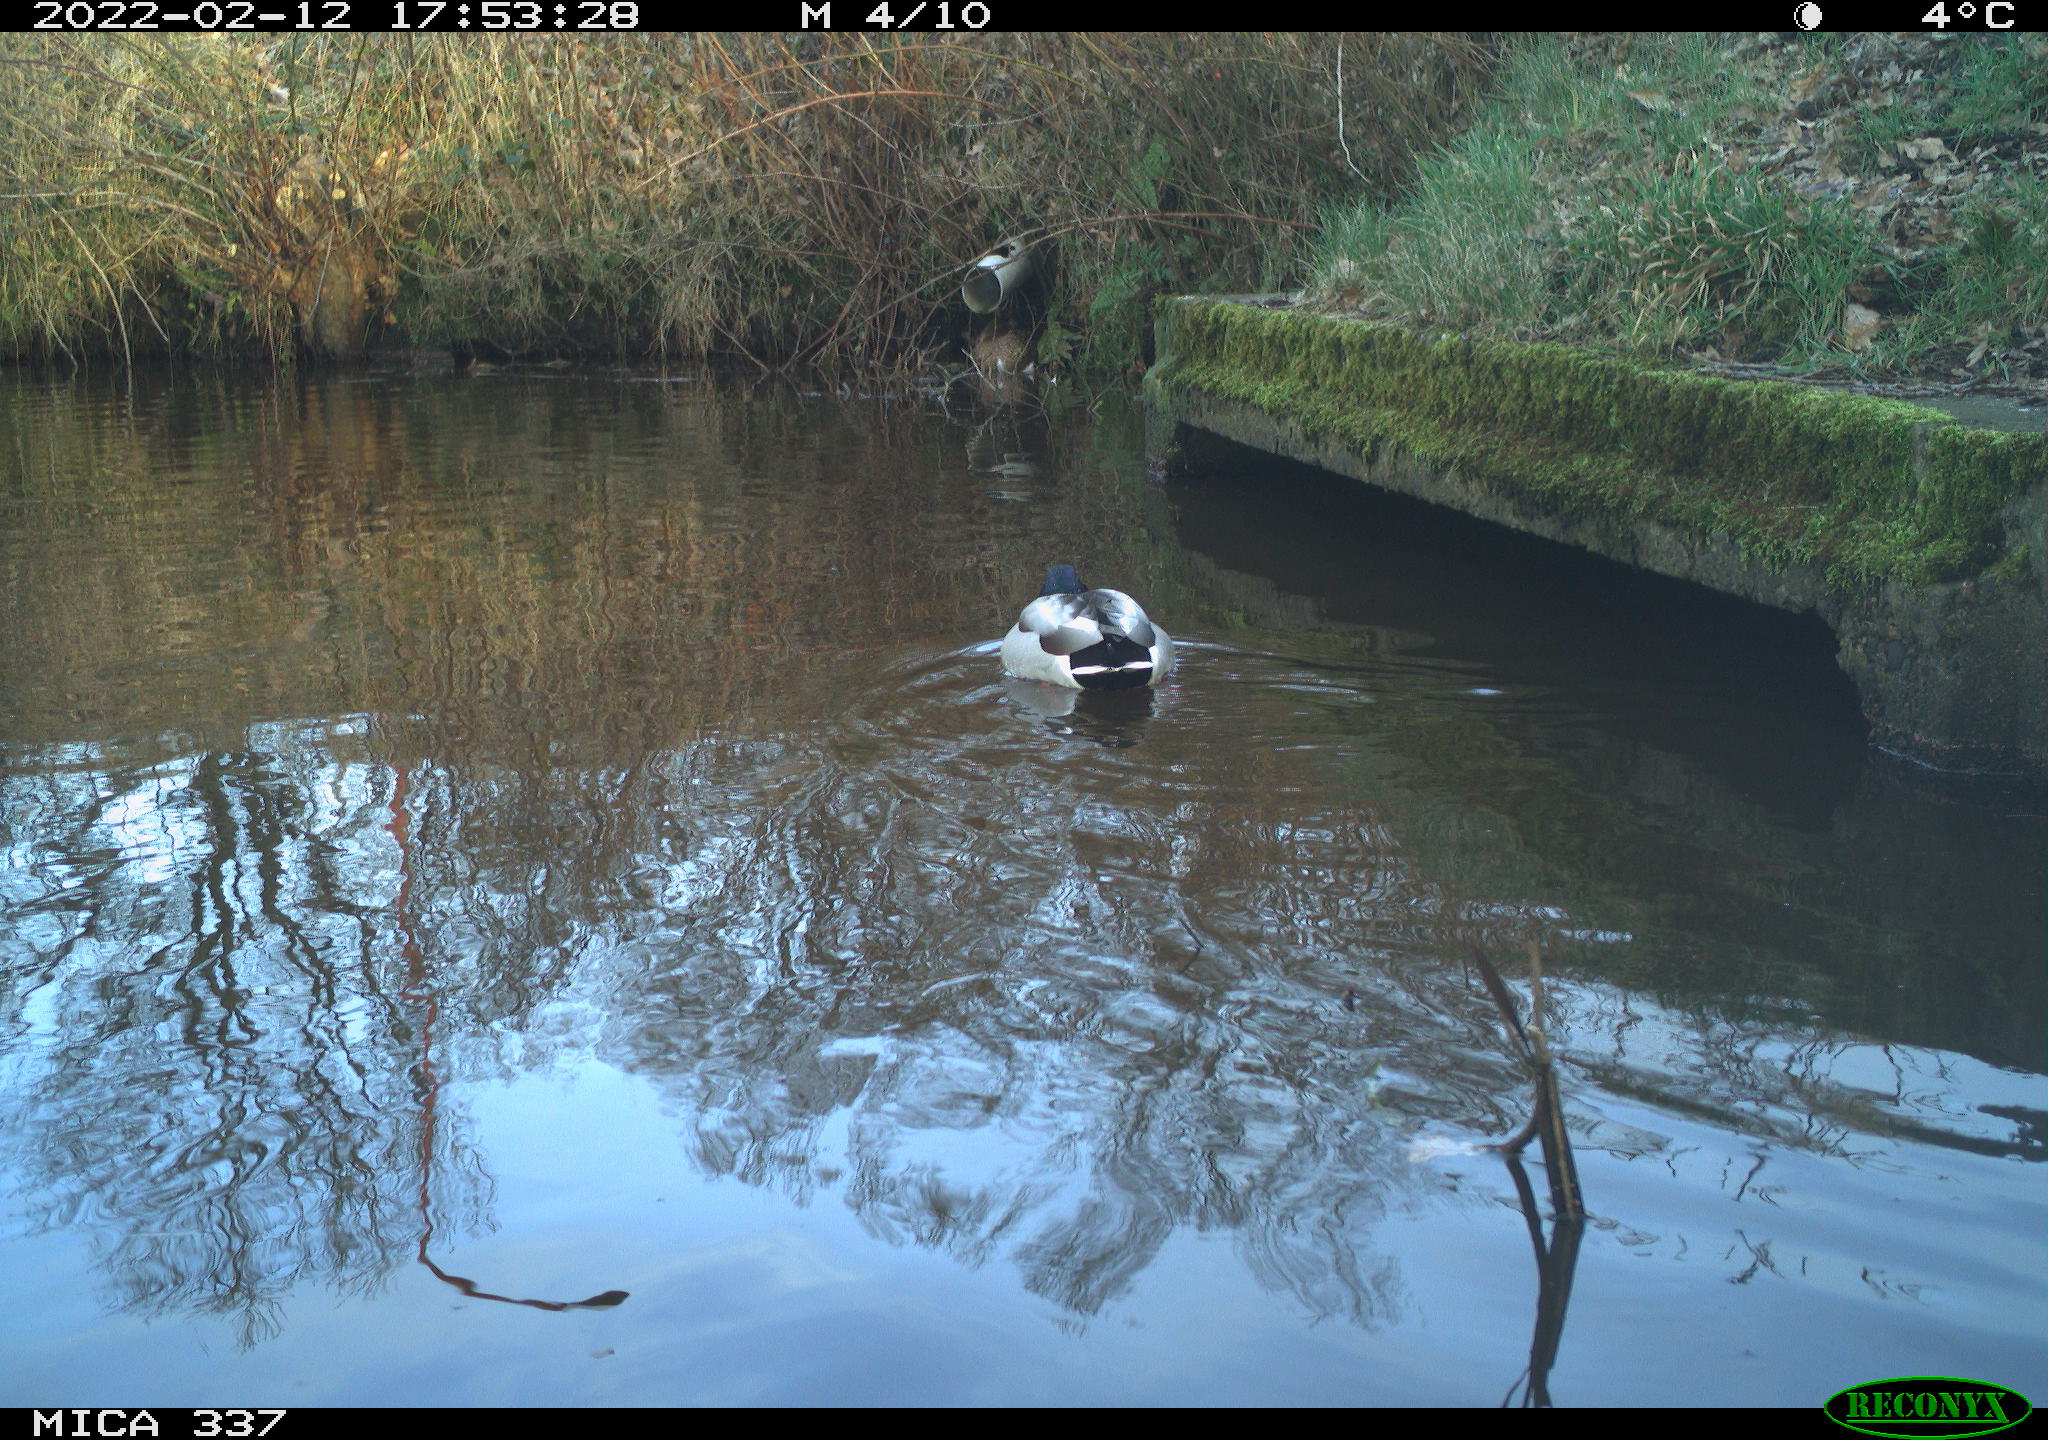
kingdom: Animalia
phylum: Chordata
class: Aves
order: Anseriformes
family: Anatidae
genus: Anas
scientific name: Anas platyrhynchos
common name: Mallard
